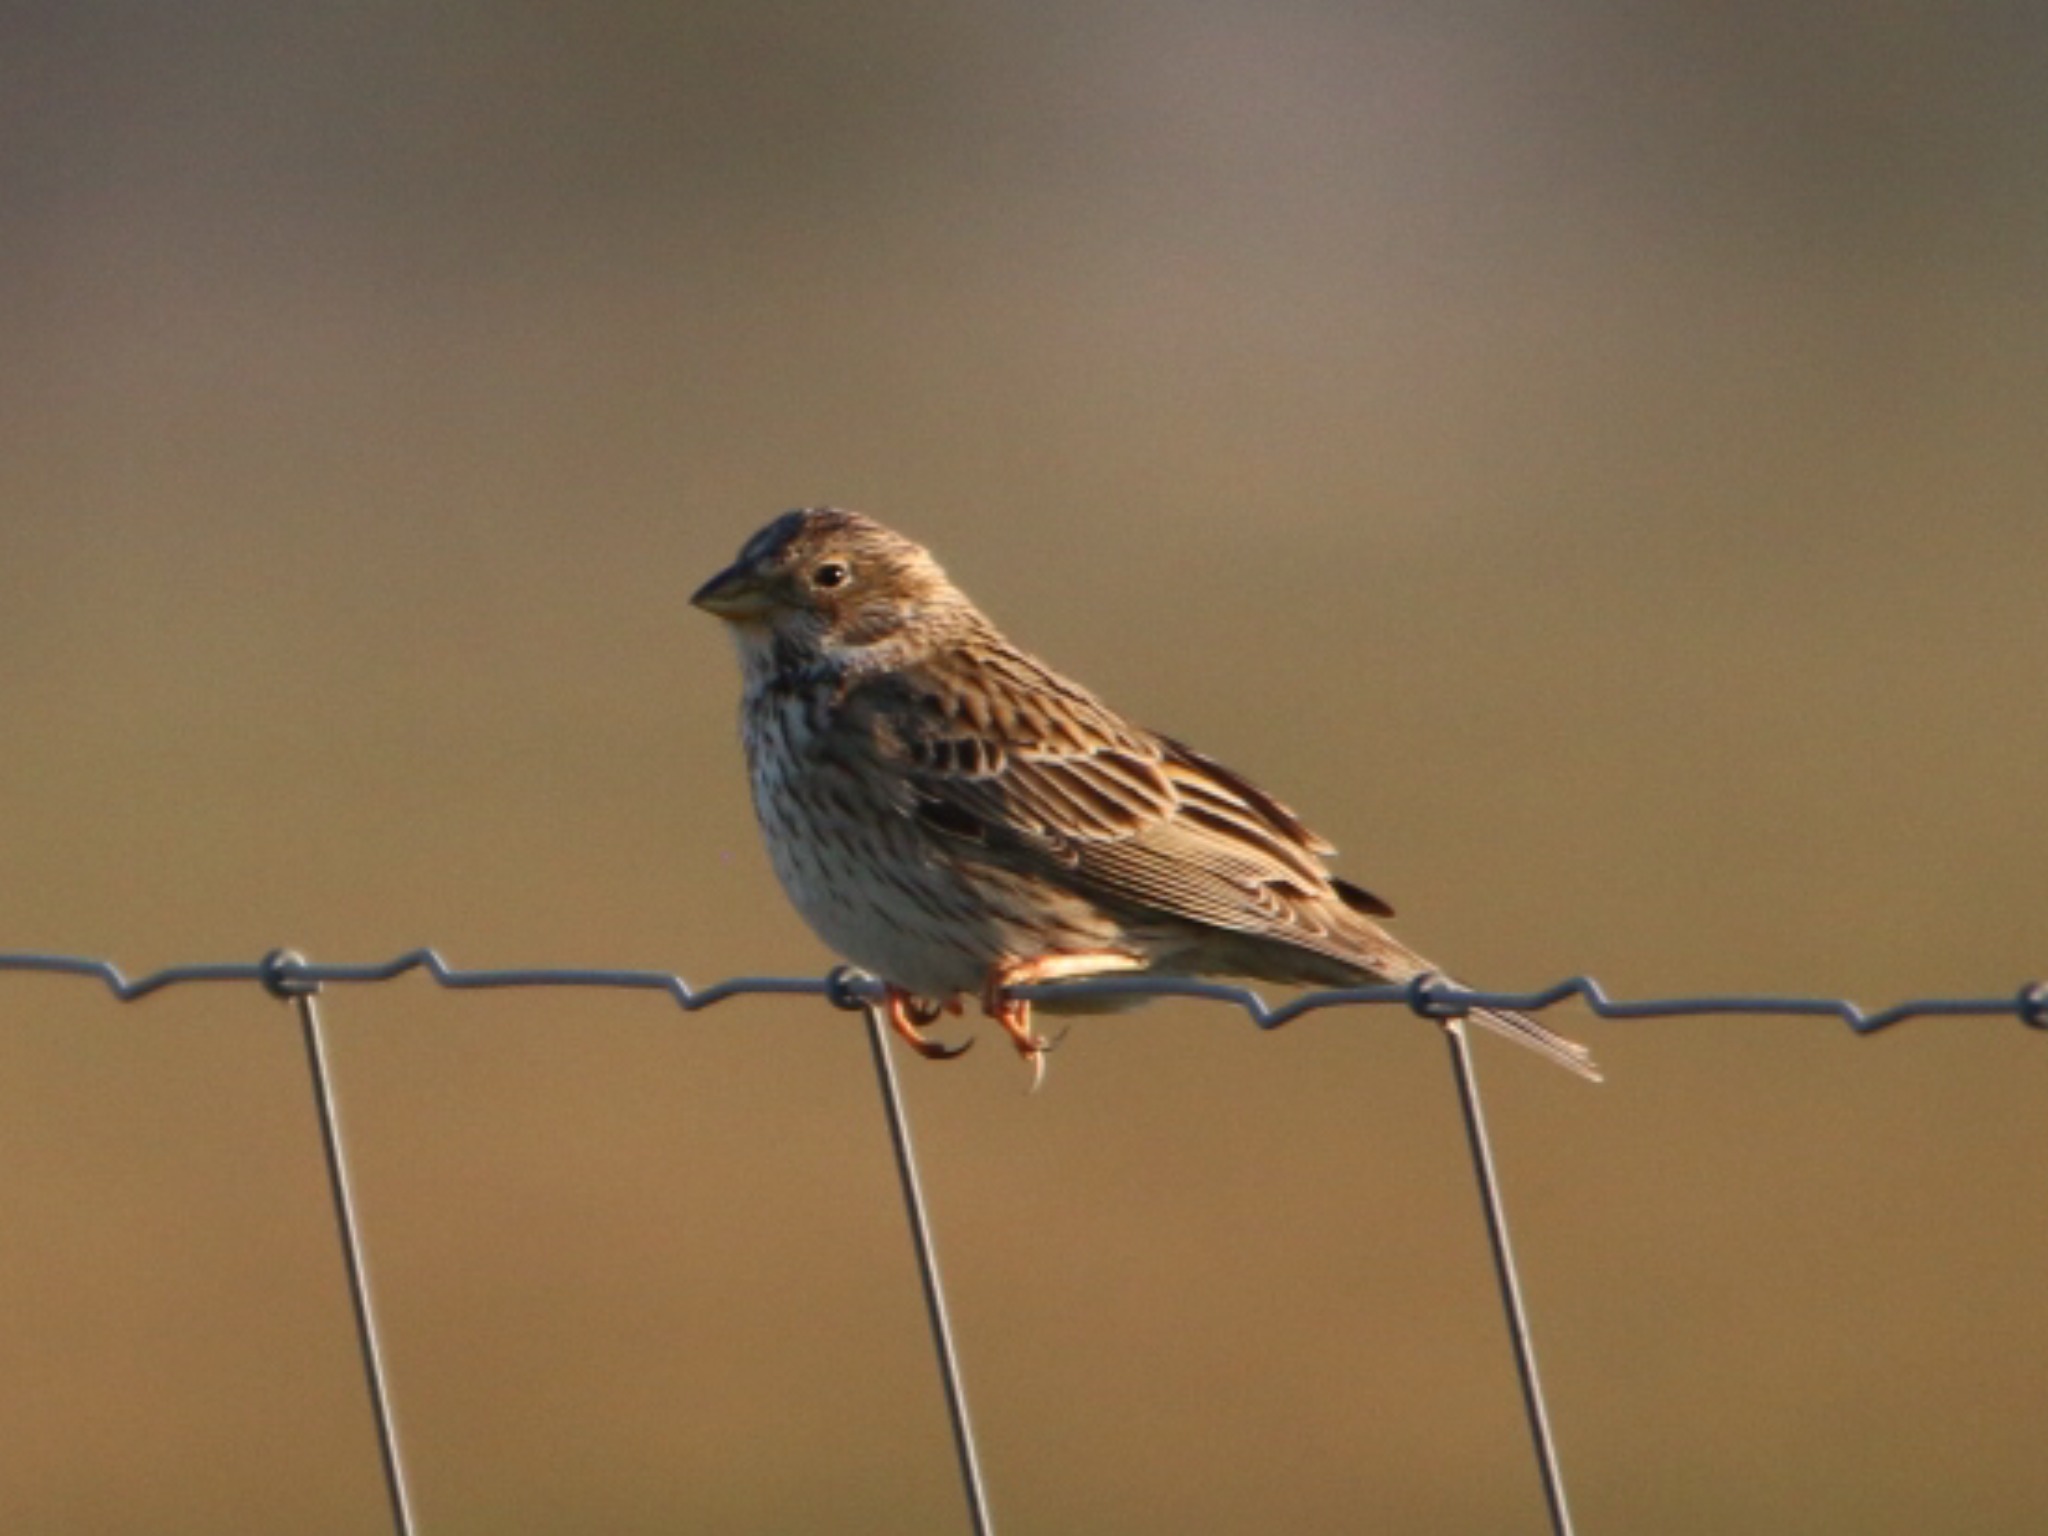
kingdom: Animalia
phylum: Chordata
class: Aves
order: Passeriformes
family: Emberizidae
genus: Emberiza
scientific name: Emberiza calandra
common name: Bomlærke
